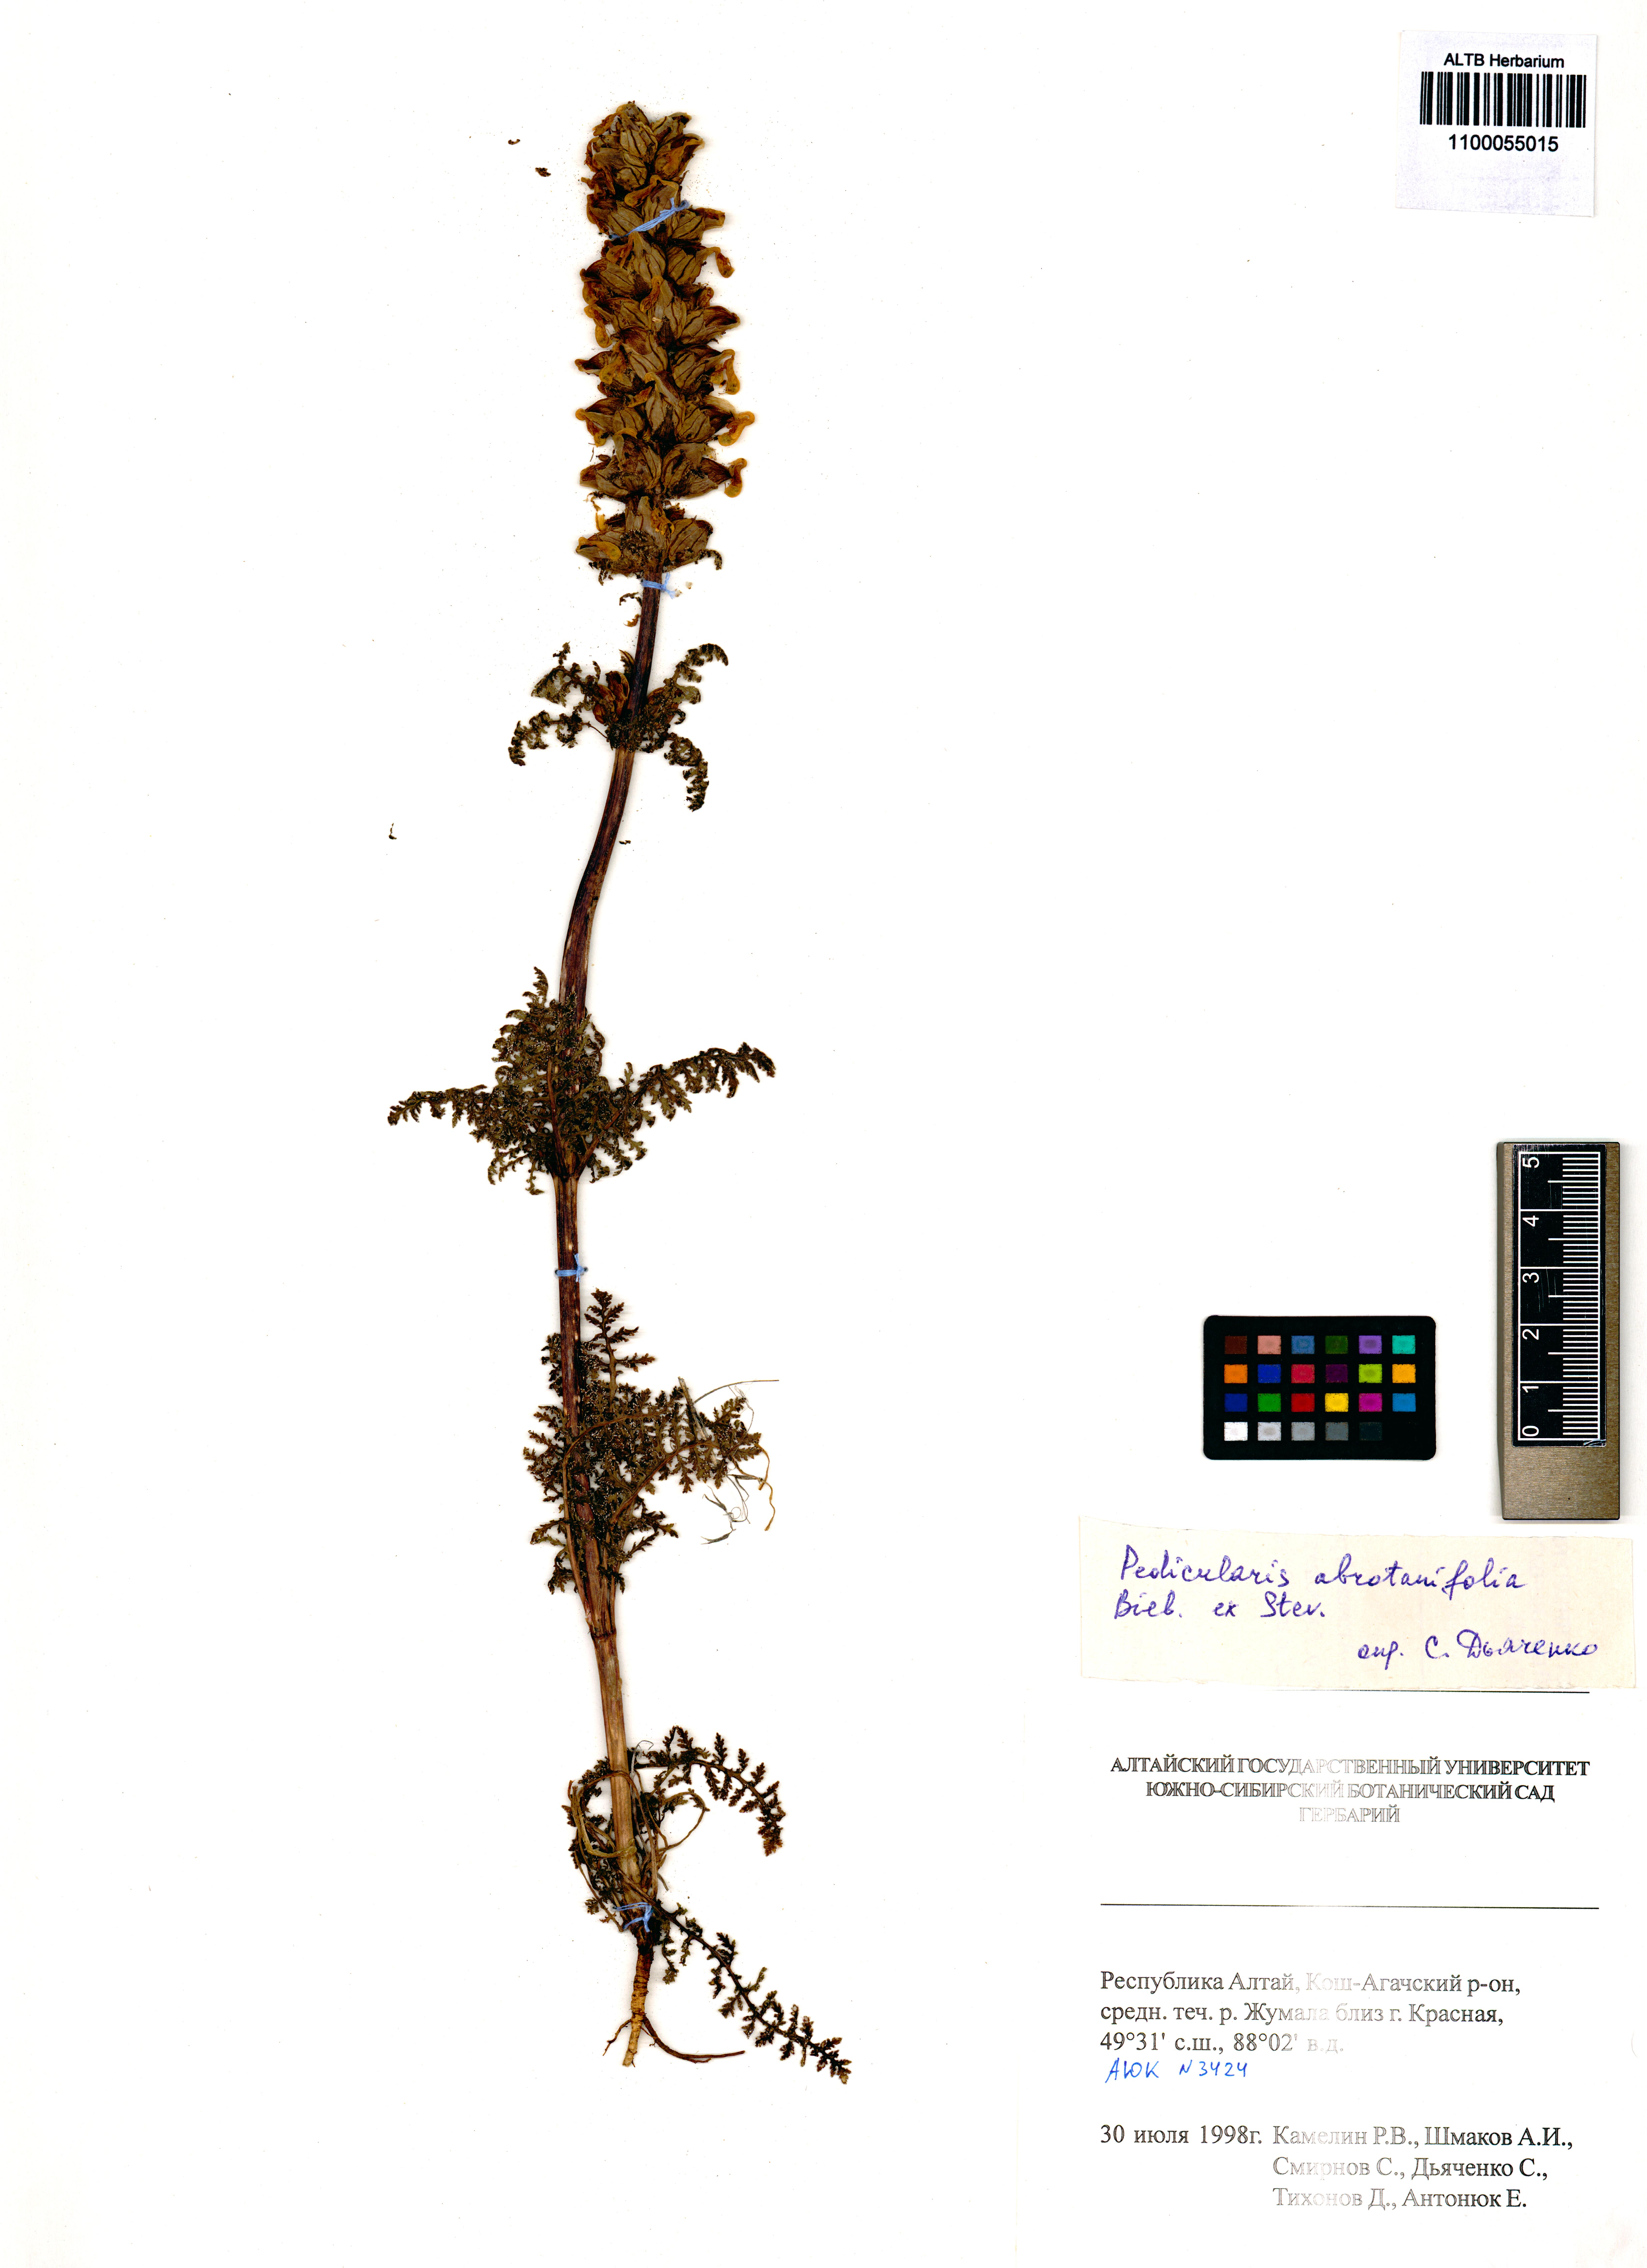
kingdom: Plantae
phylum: Tracheophyta
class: Magnoliopsida
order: Lamiales
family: Orobanchaceae
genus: Pedicularis
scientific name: Pedicularis abrotanifolia
